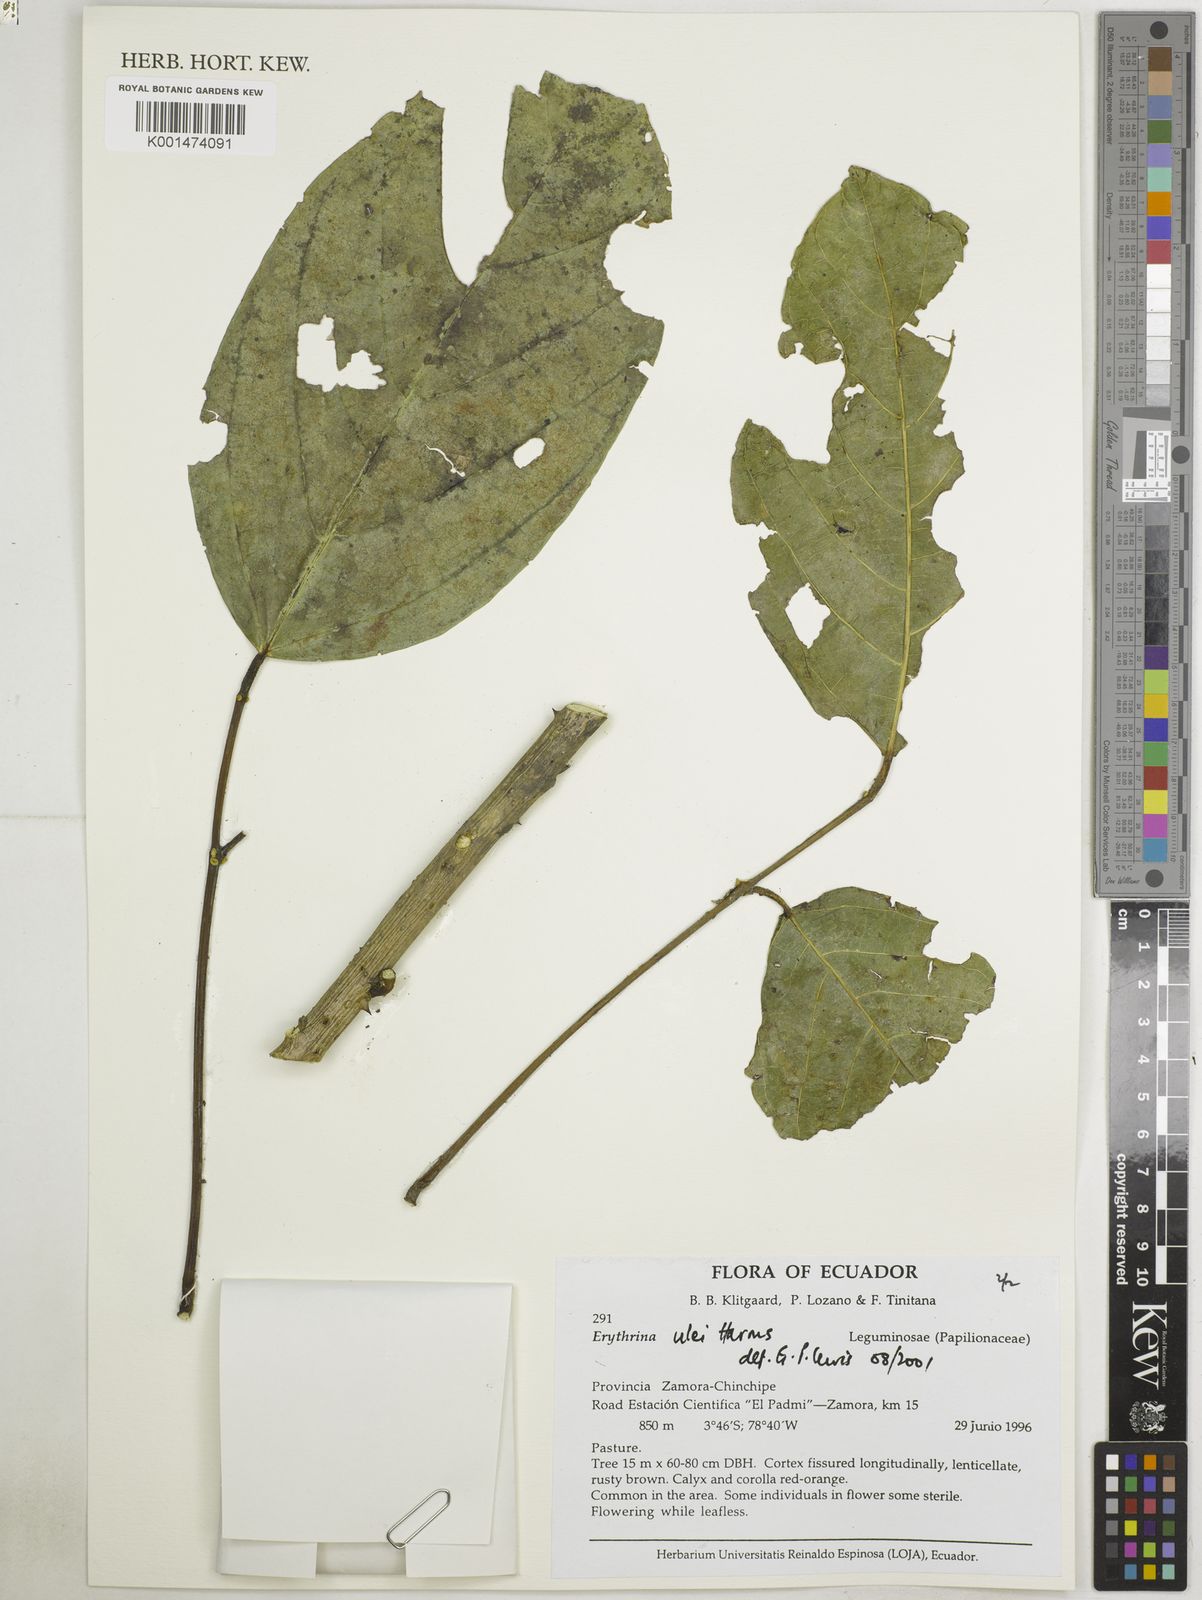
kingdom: Plantae
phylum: Tracheophyta
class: Magnoliopsida
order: Fabales
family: Fabaceae
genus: Erythrina
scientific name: Erythrina ulei
